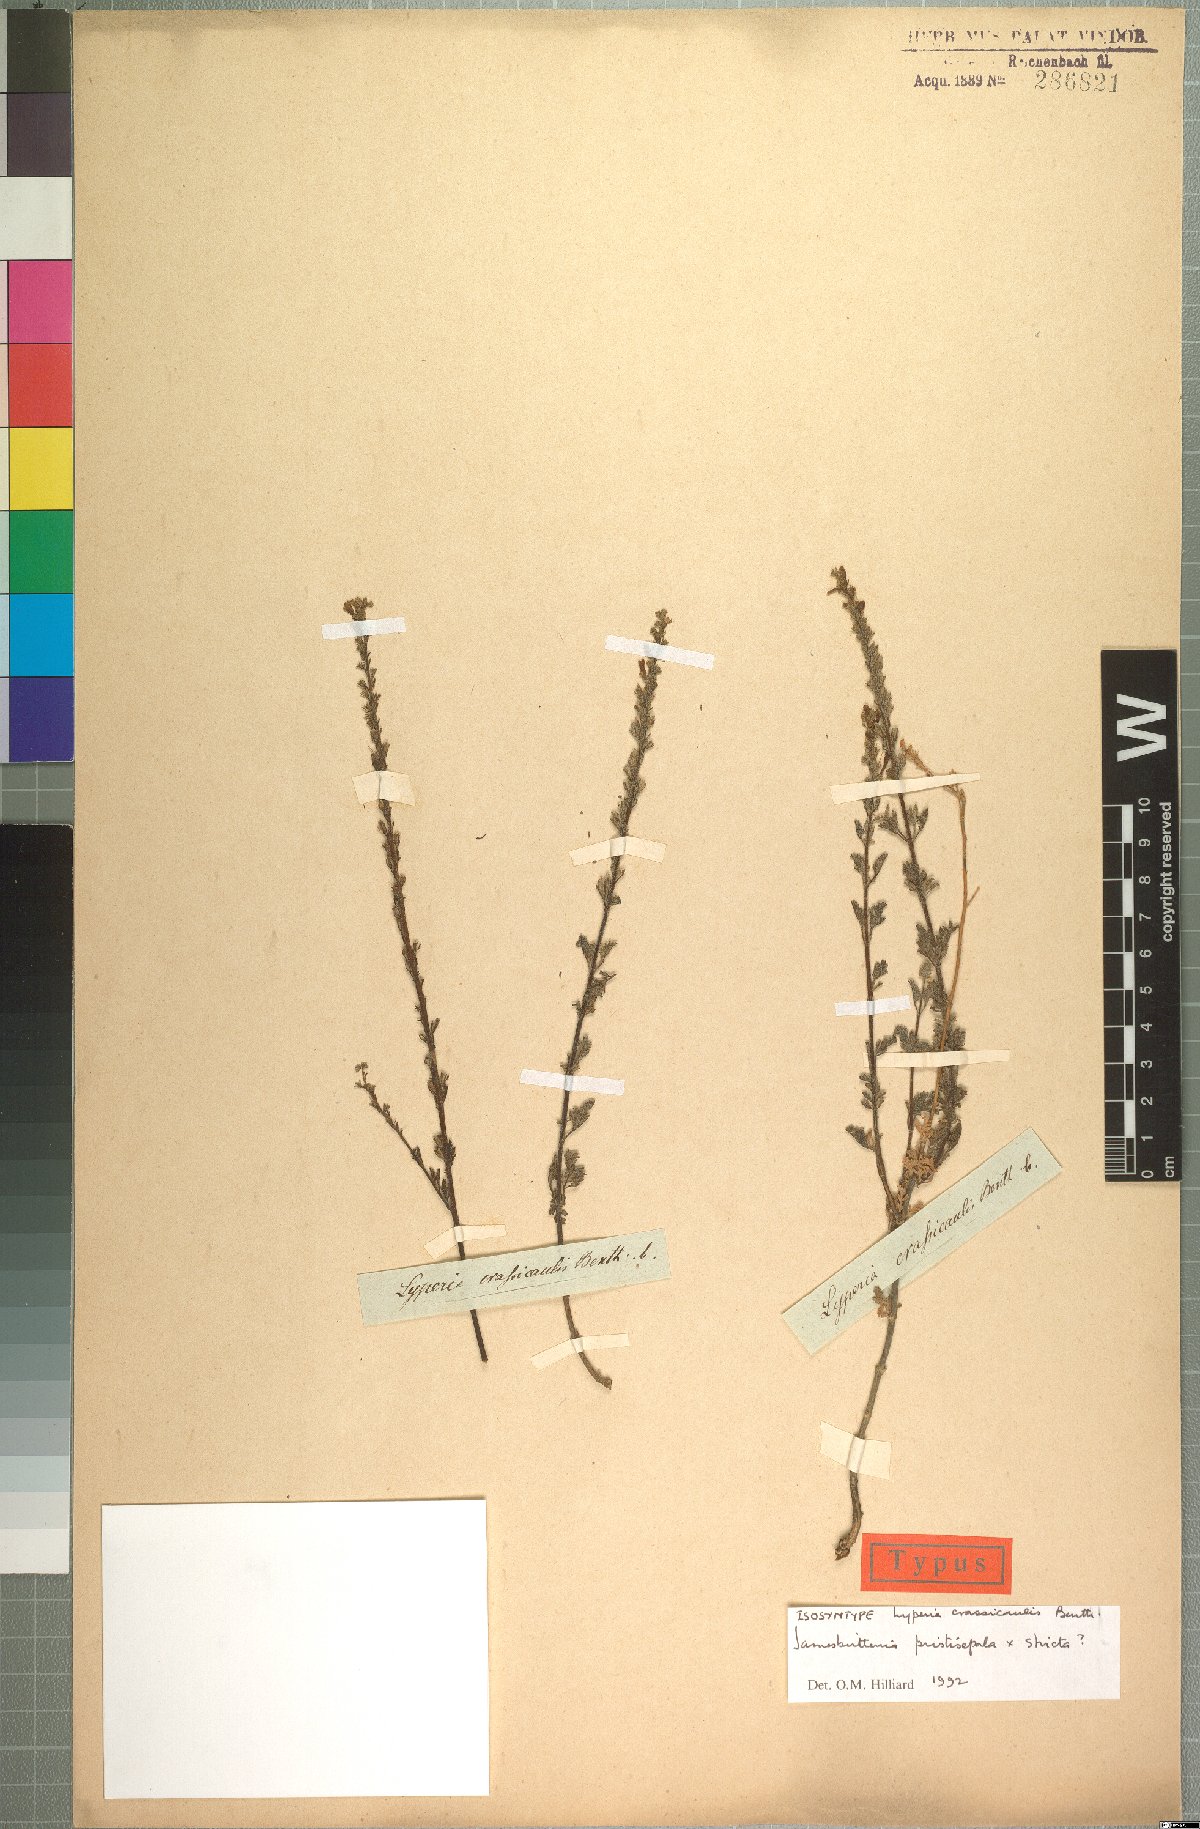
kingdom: Plantae
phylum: Tracheophyta
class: Magnoliopsida
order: Lamiales
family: Scrophulariaceae
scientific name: Scrophulariaceae
